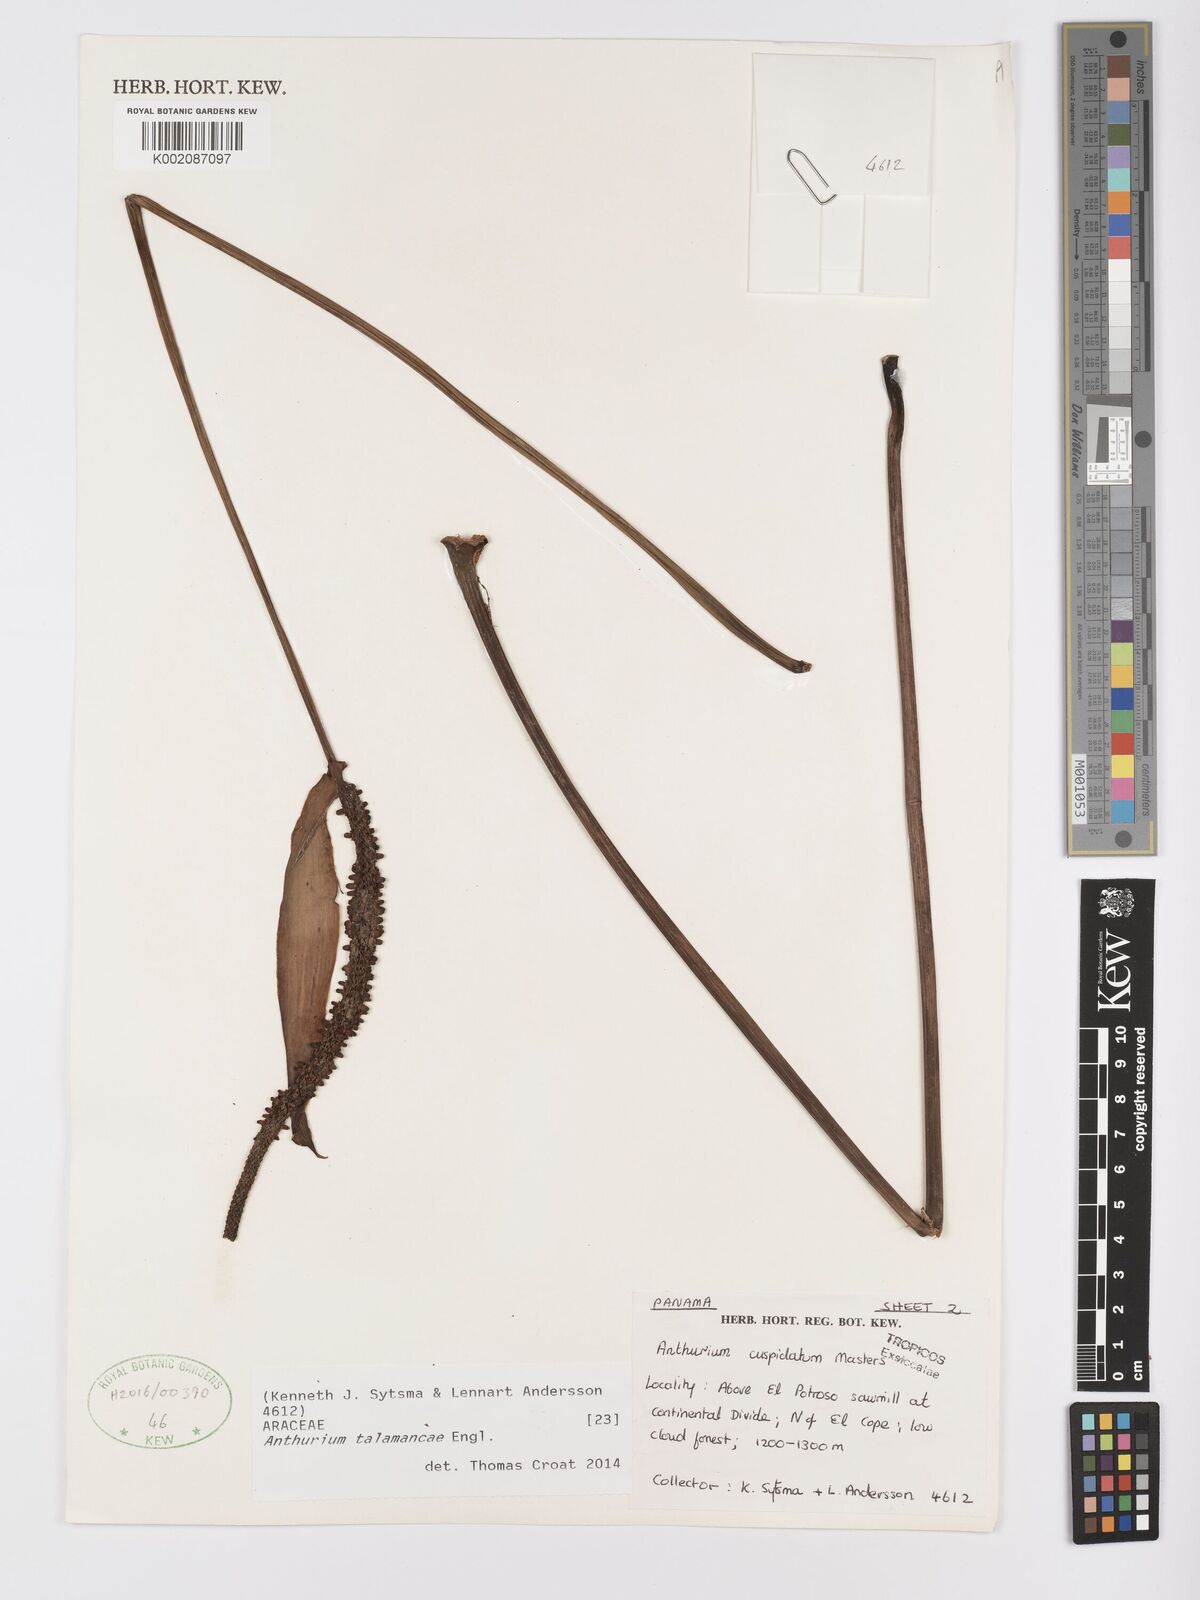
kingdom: Plantae
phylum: Tracheophyta
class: Liliopsida
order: Alismatales
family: Araceae
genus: Anthurium
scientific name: Anthurium talamancae
